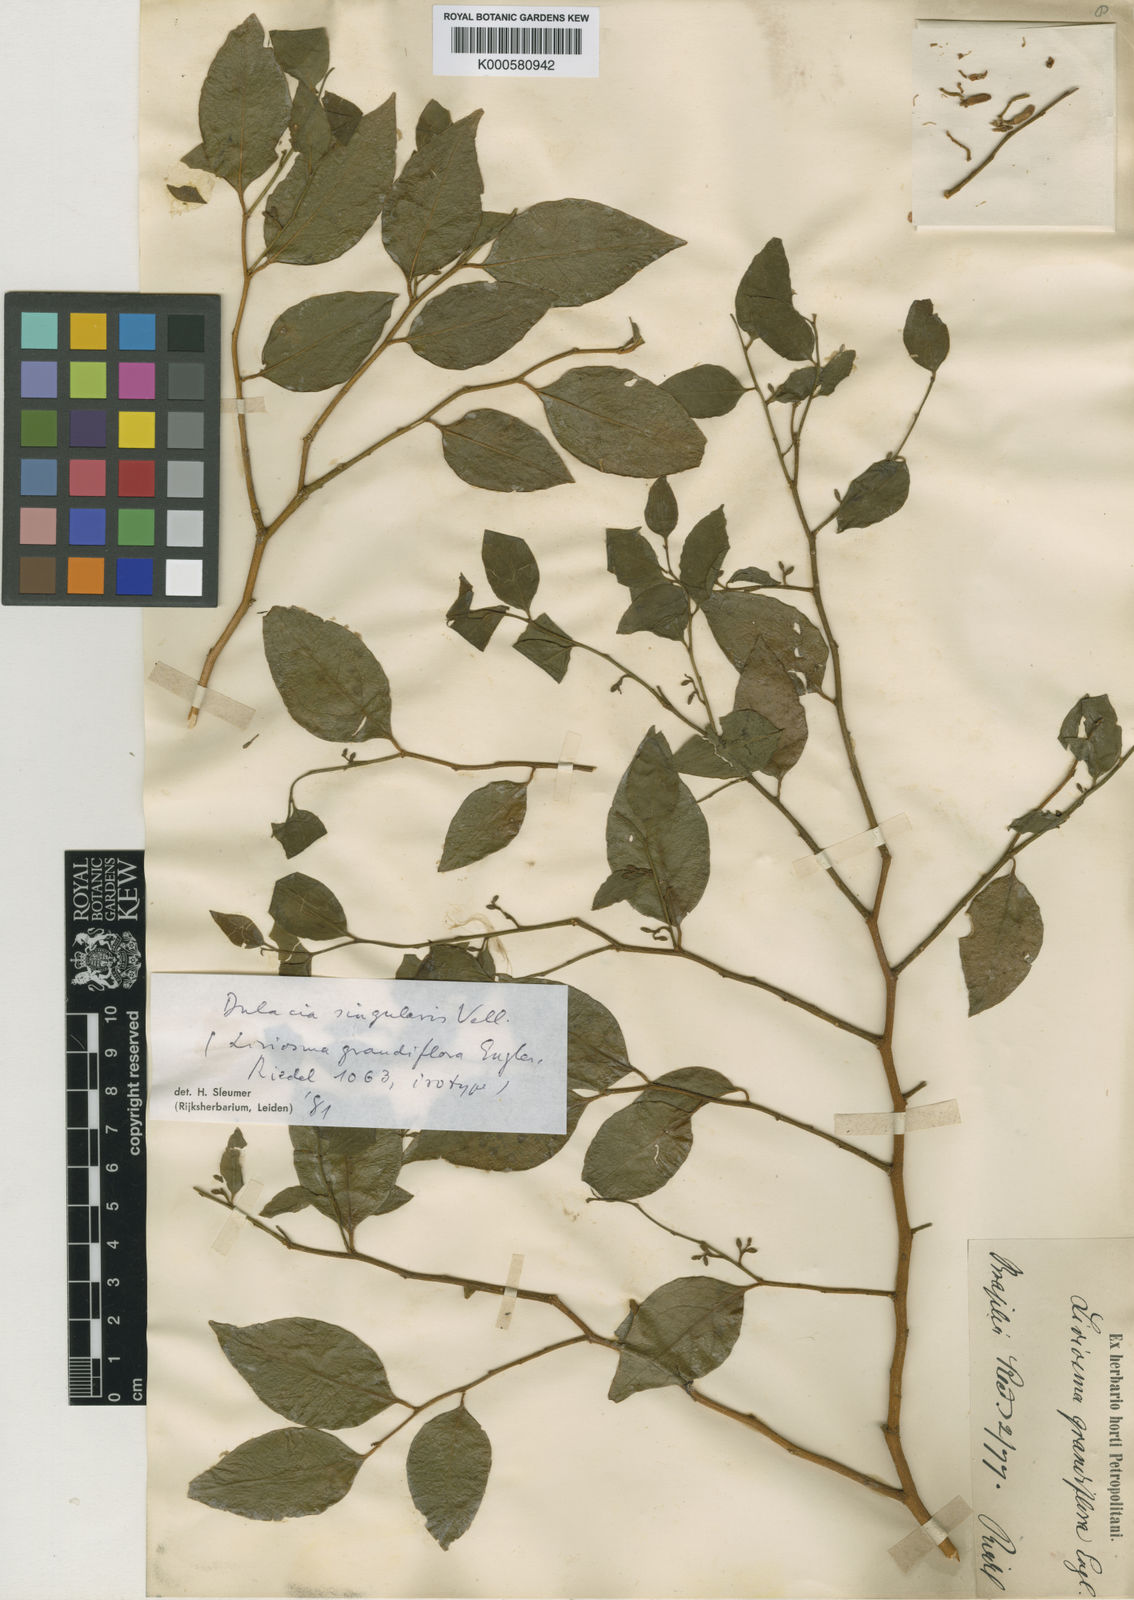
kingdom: Plantae
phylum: Tracheophyta
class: Magnoliopsida
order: Santalales
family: Olacaceae
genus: Dulacia
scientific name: Dulacia singularis
